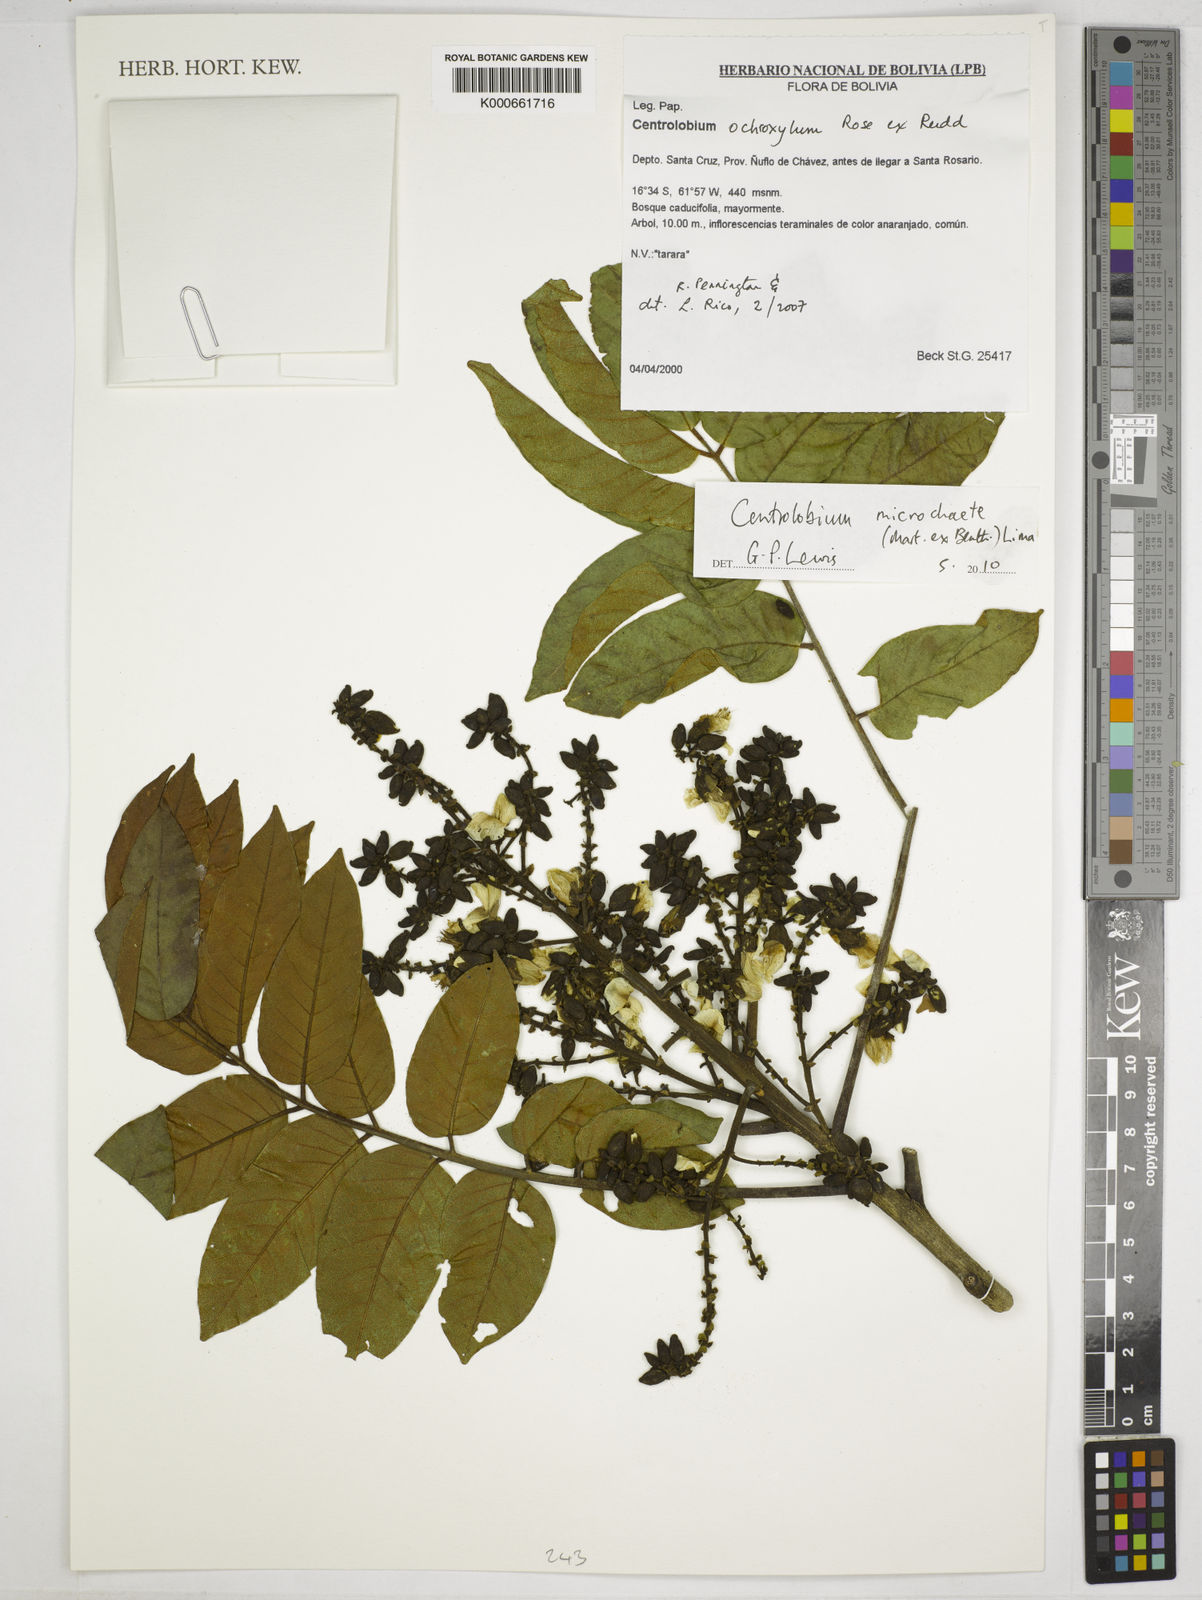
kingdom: Plantae
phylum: Tracheophyta
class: Magnoliopsida
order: Fabales
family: Fabaceae
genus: Centrolobium
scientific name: Centrolobium microchaete
